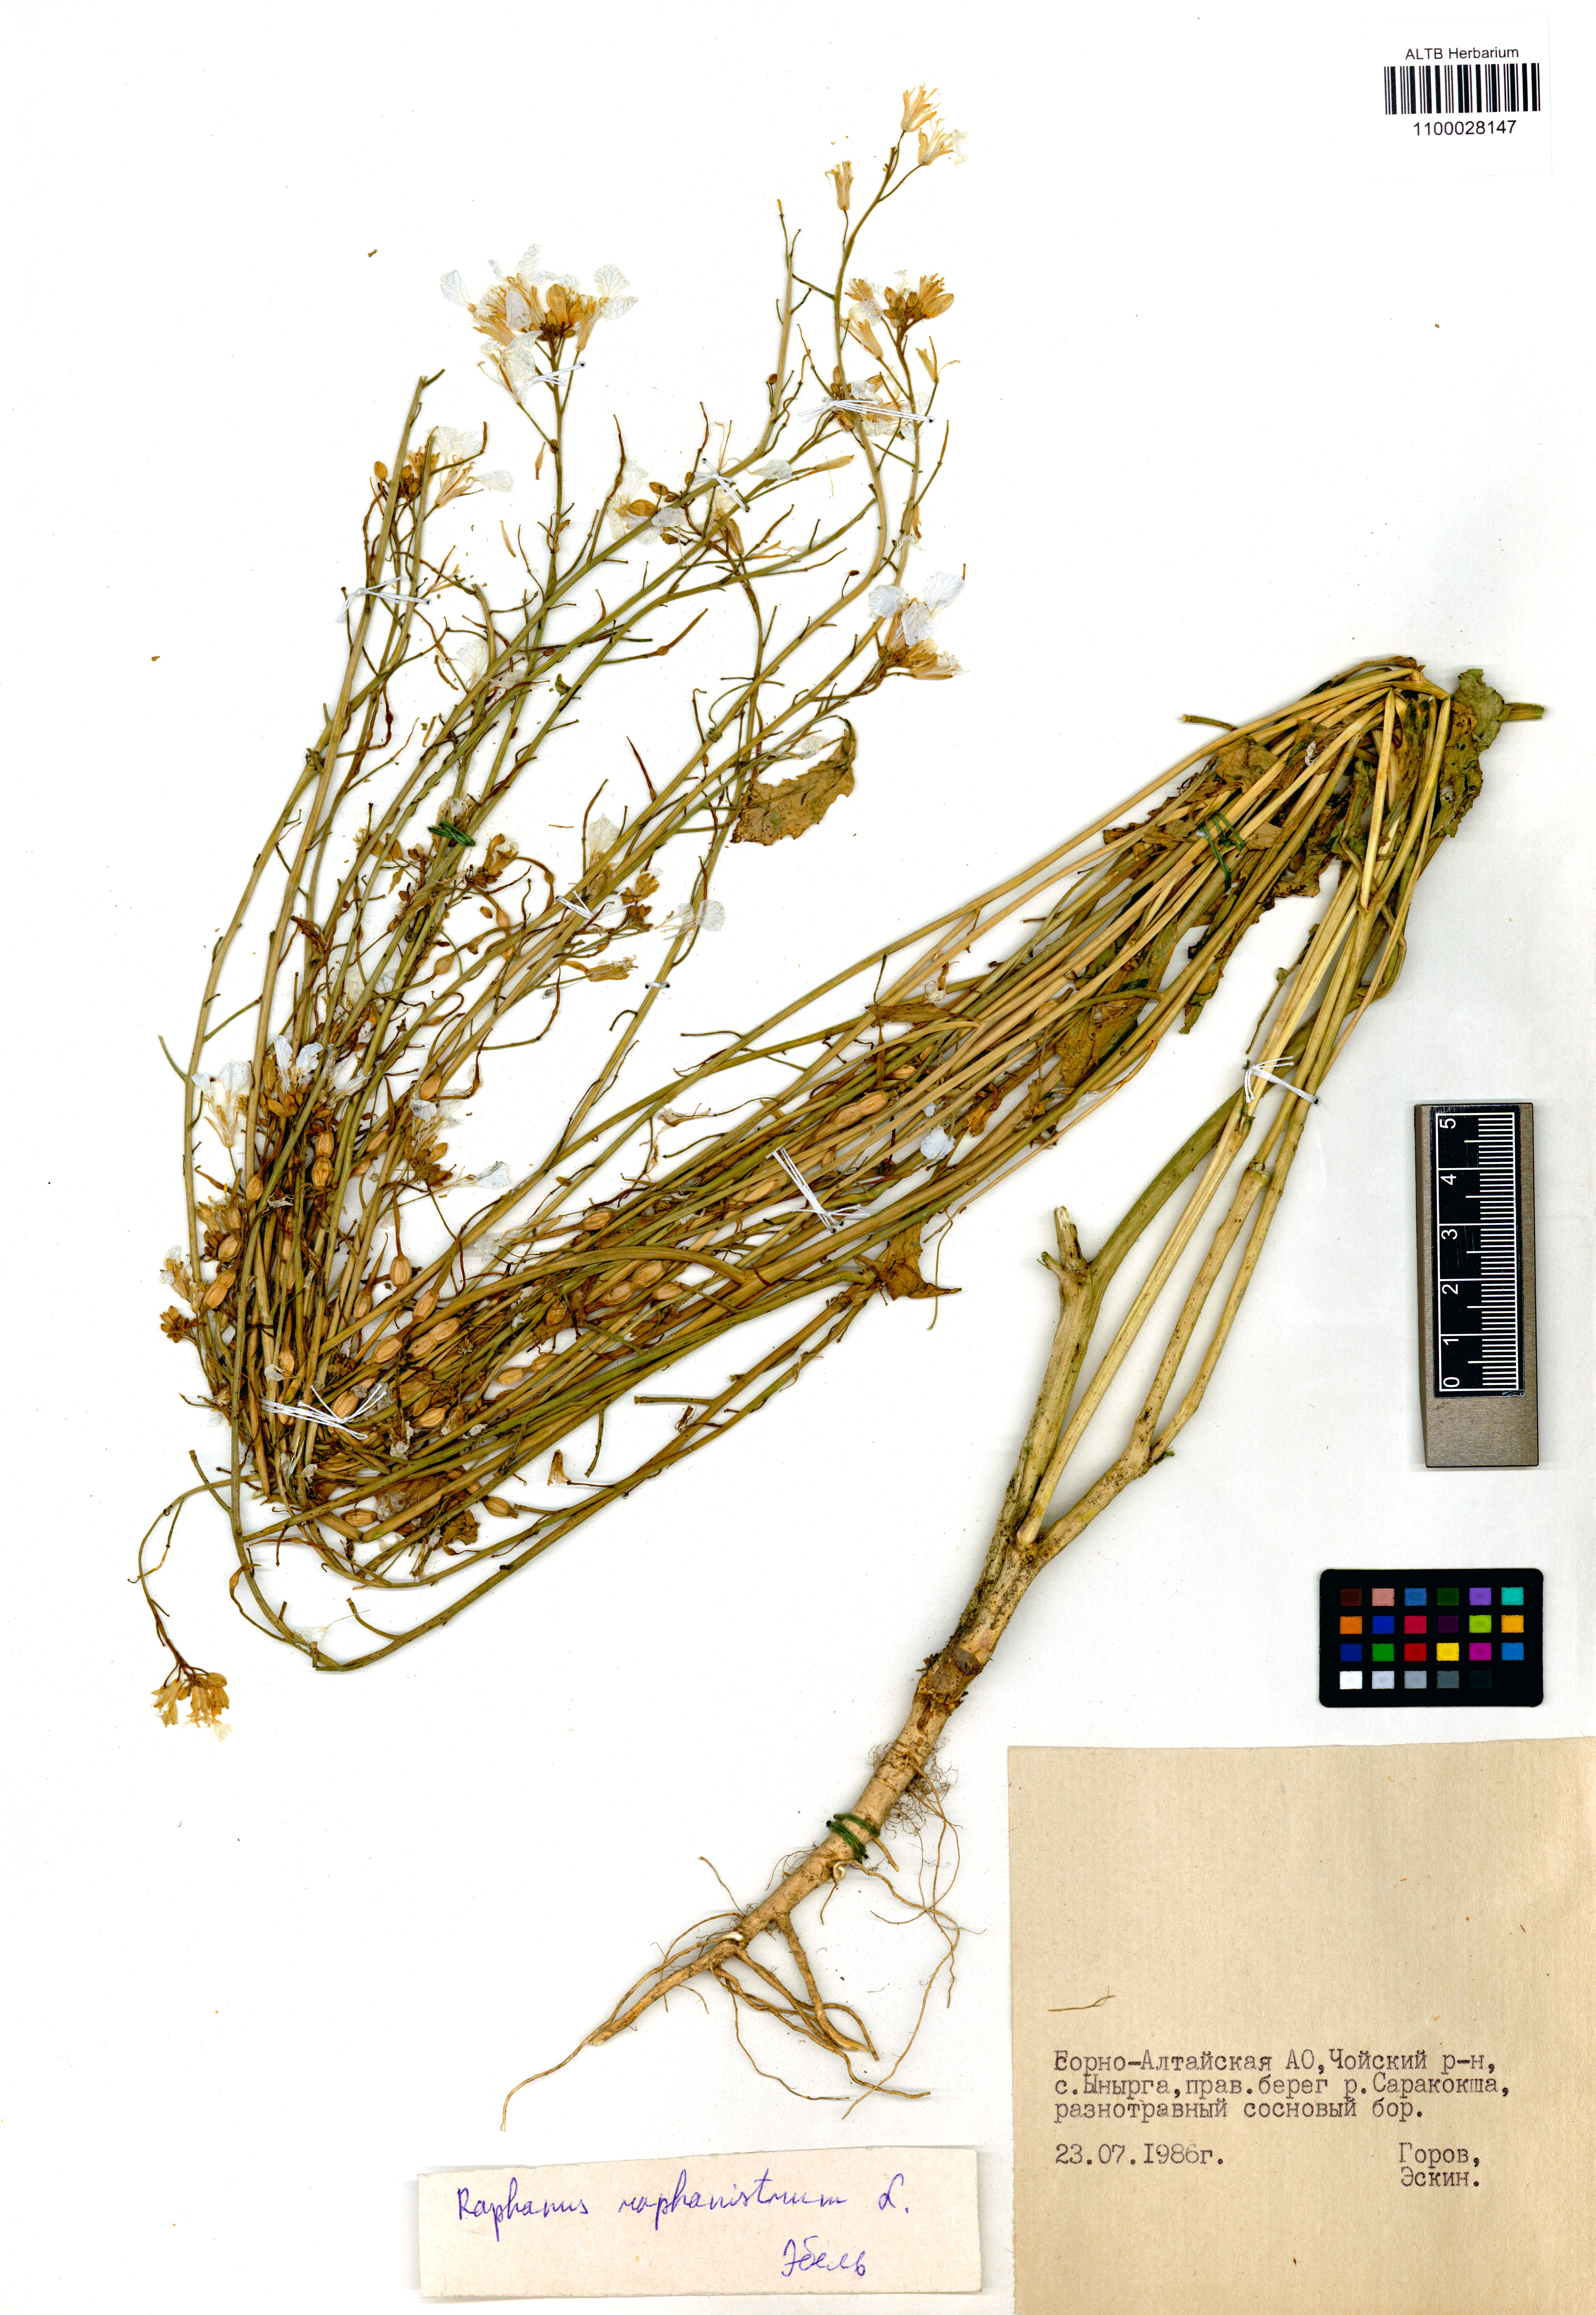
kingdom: Plantae
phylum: Tracheophyta
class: Magnoliopsida
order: Brassicales
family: Brassicaceae
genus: Raphanus
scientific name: Raphanus raphanistrum
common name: Wild radish
